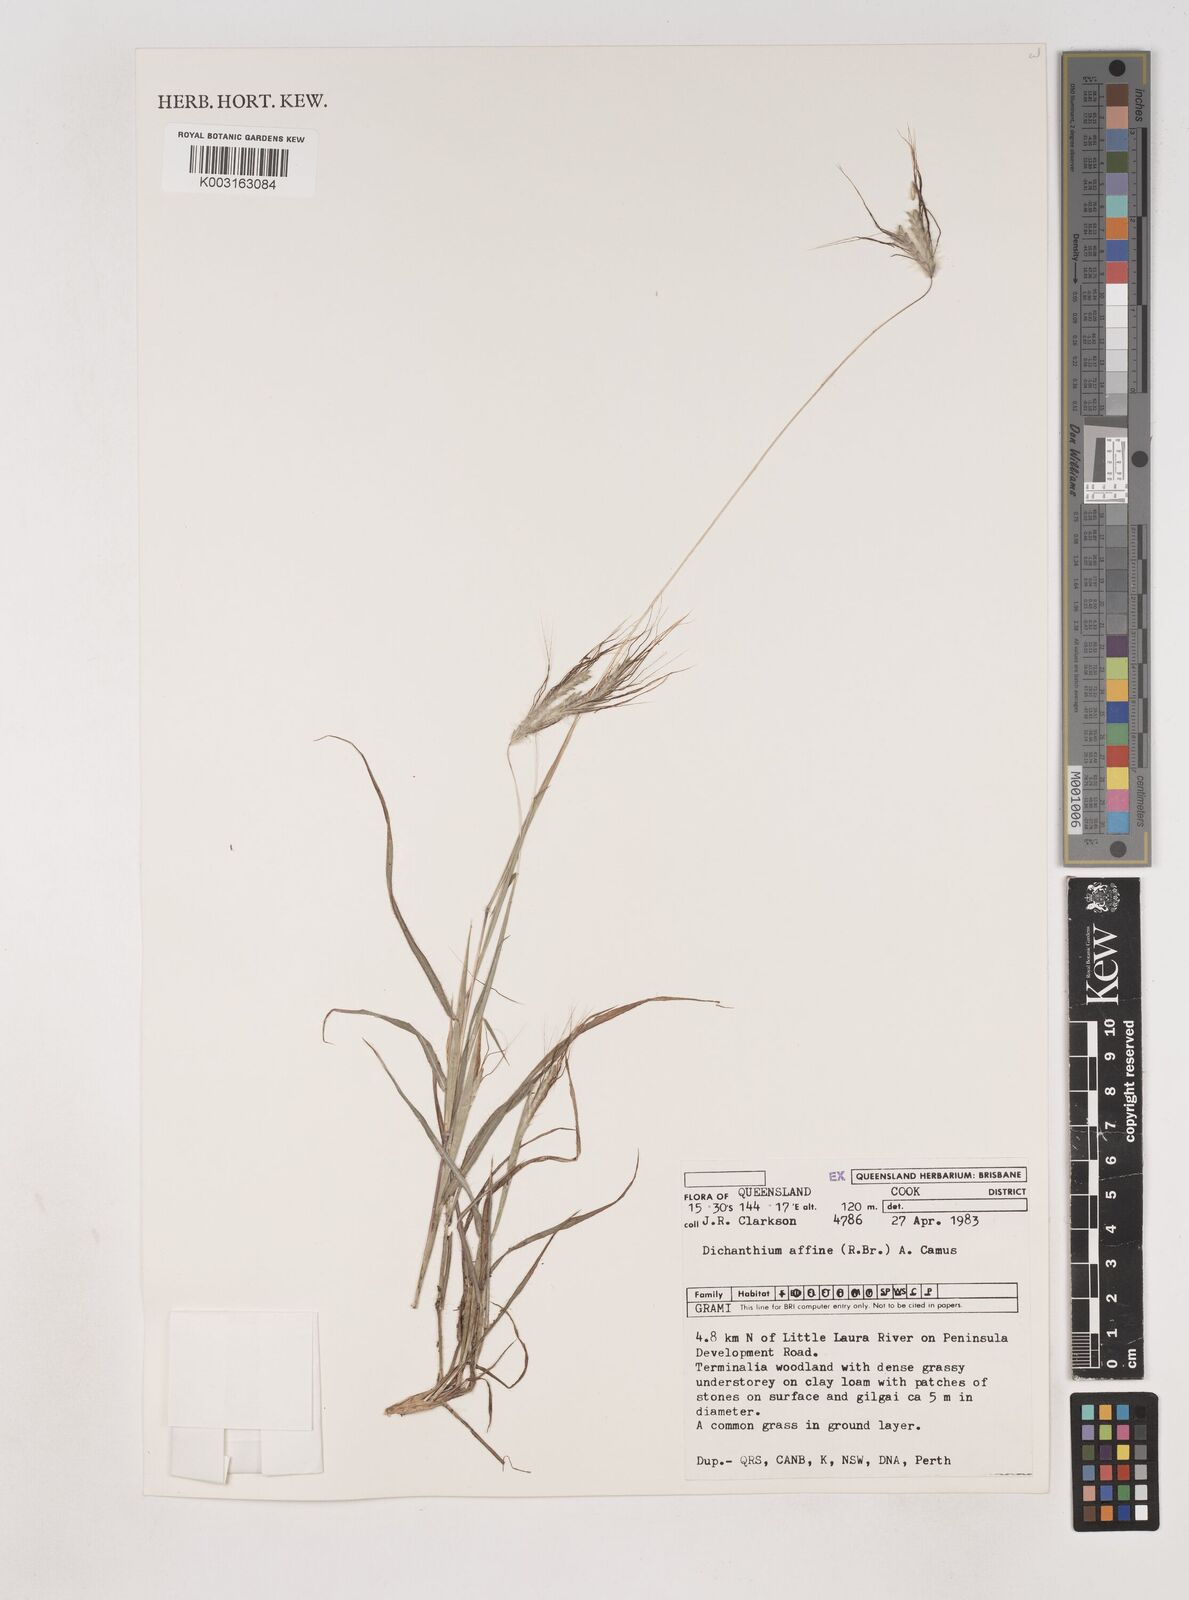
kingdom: Plantae
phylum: Tracheophyta
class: Liliopsida
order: Poales
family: Poaceae
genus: Dichanthium
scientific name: Dichanthium sericeum
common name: Silky bluestem
